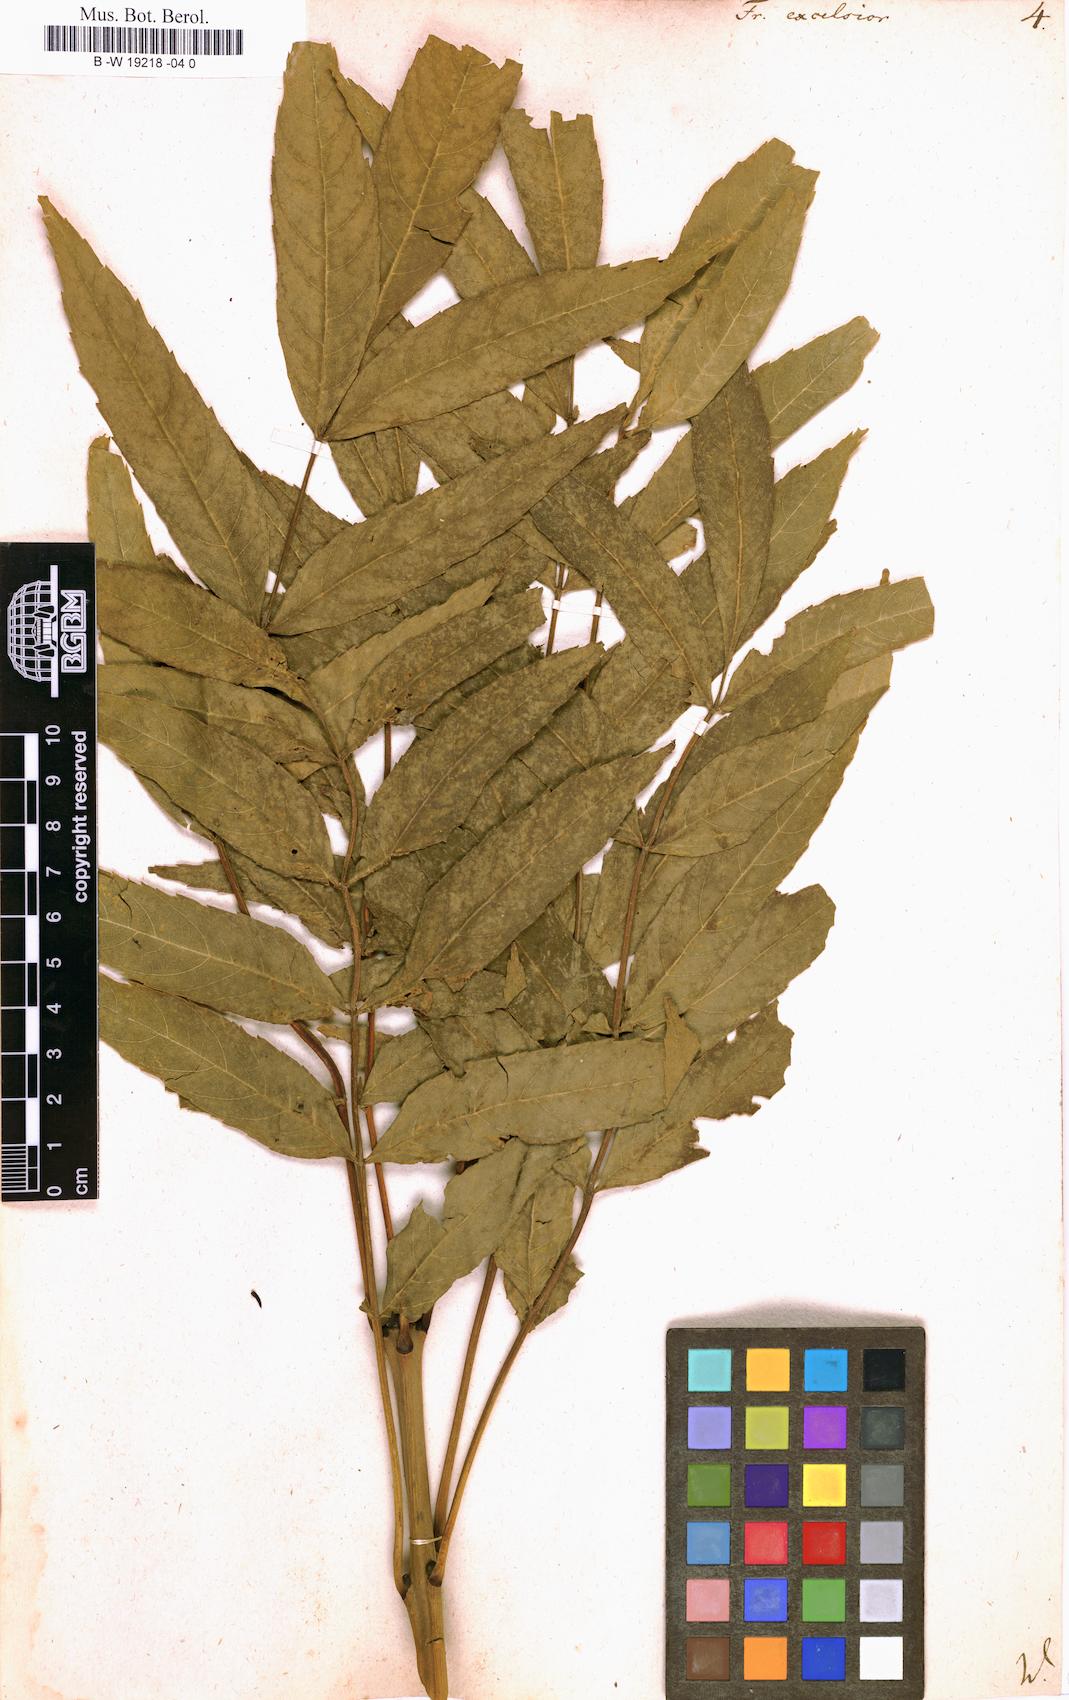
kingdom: Plantae
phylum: Tracheophyta
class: Magnoliopsida
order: Lamiales
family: Oleaceae
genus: Fraxinus
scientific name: Fraxinus excelsior
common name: European ash
